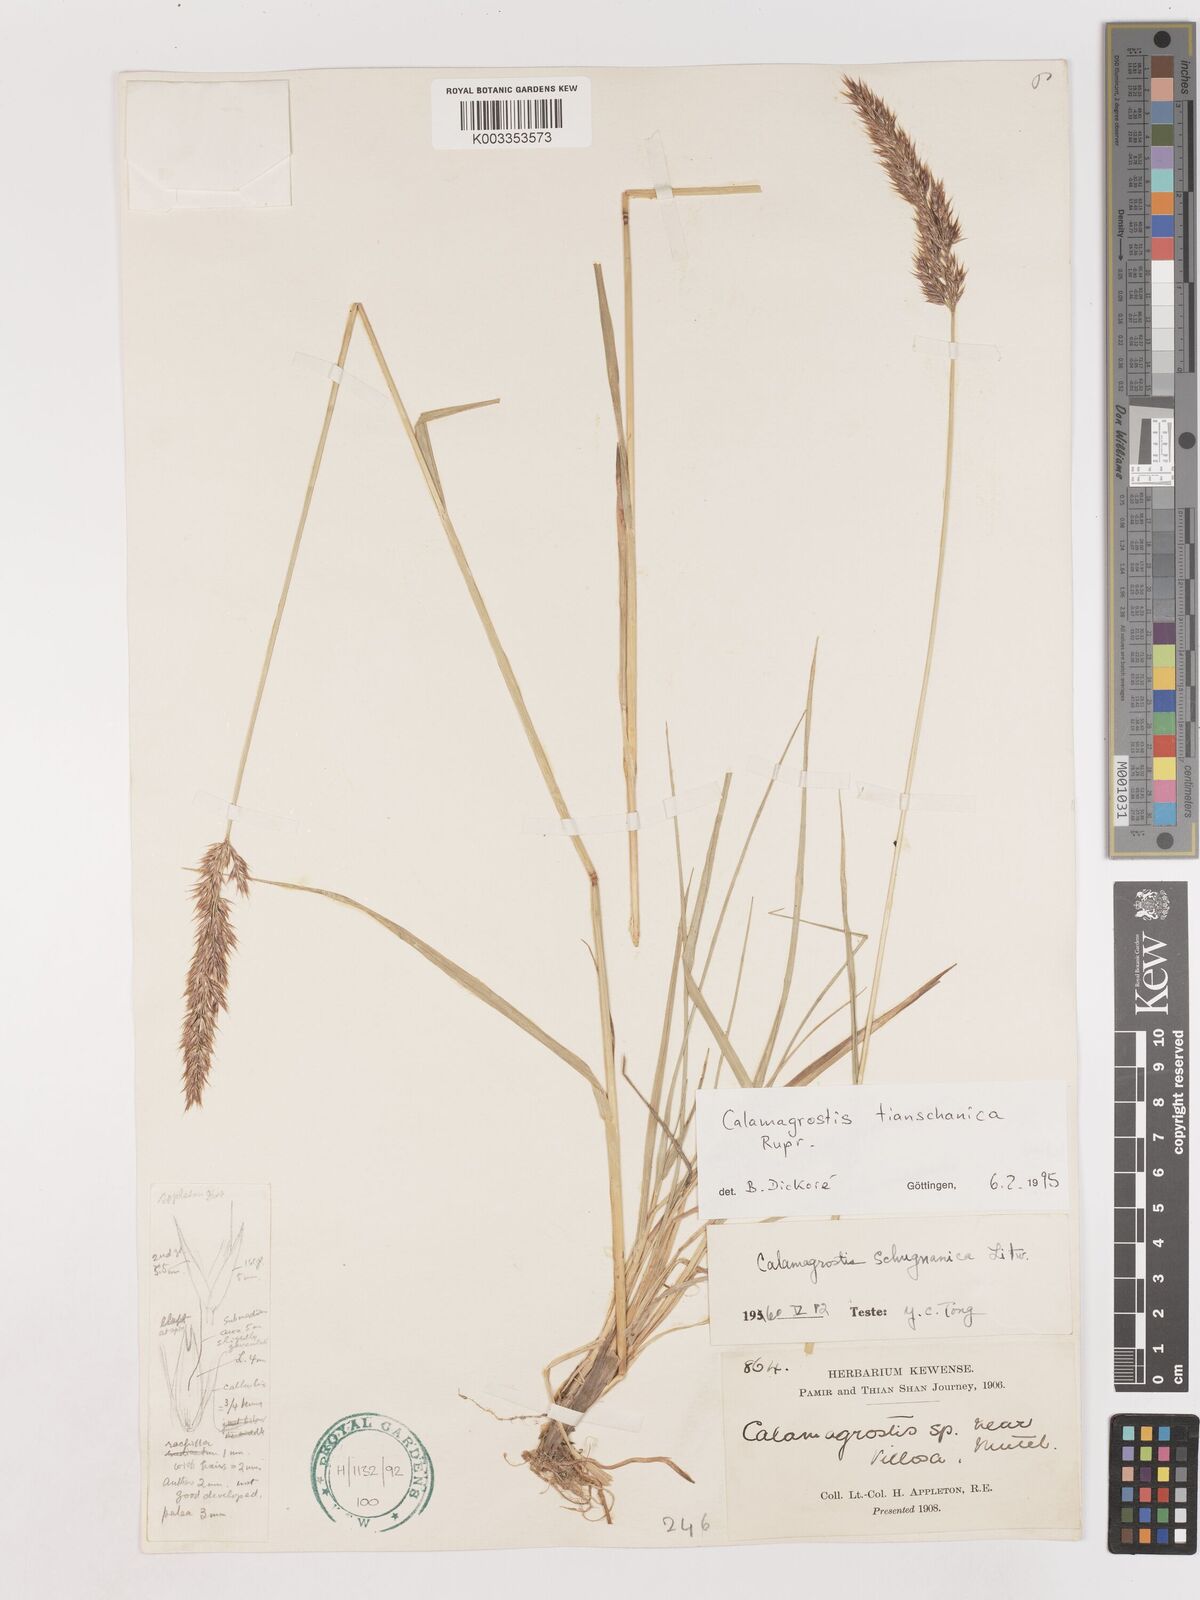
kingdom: Plantae
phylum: Tracheophyta
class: Liliopsida
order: Poales
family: Poaceae
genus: Calamagrostis
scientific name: Calamagrostis tianschanica
